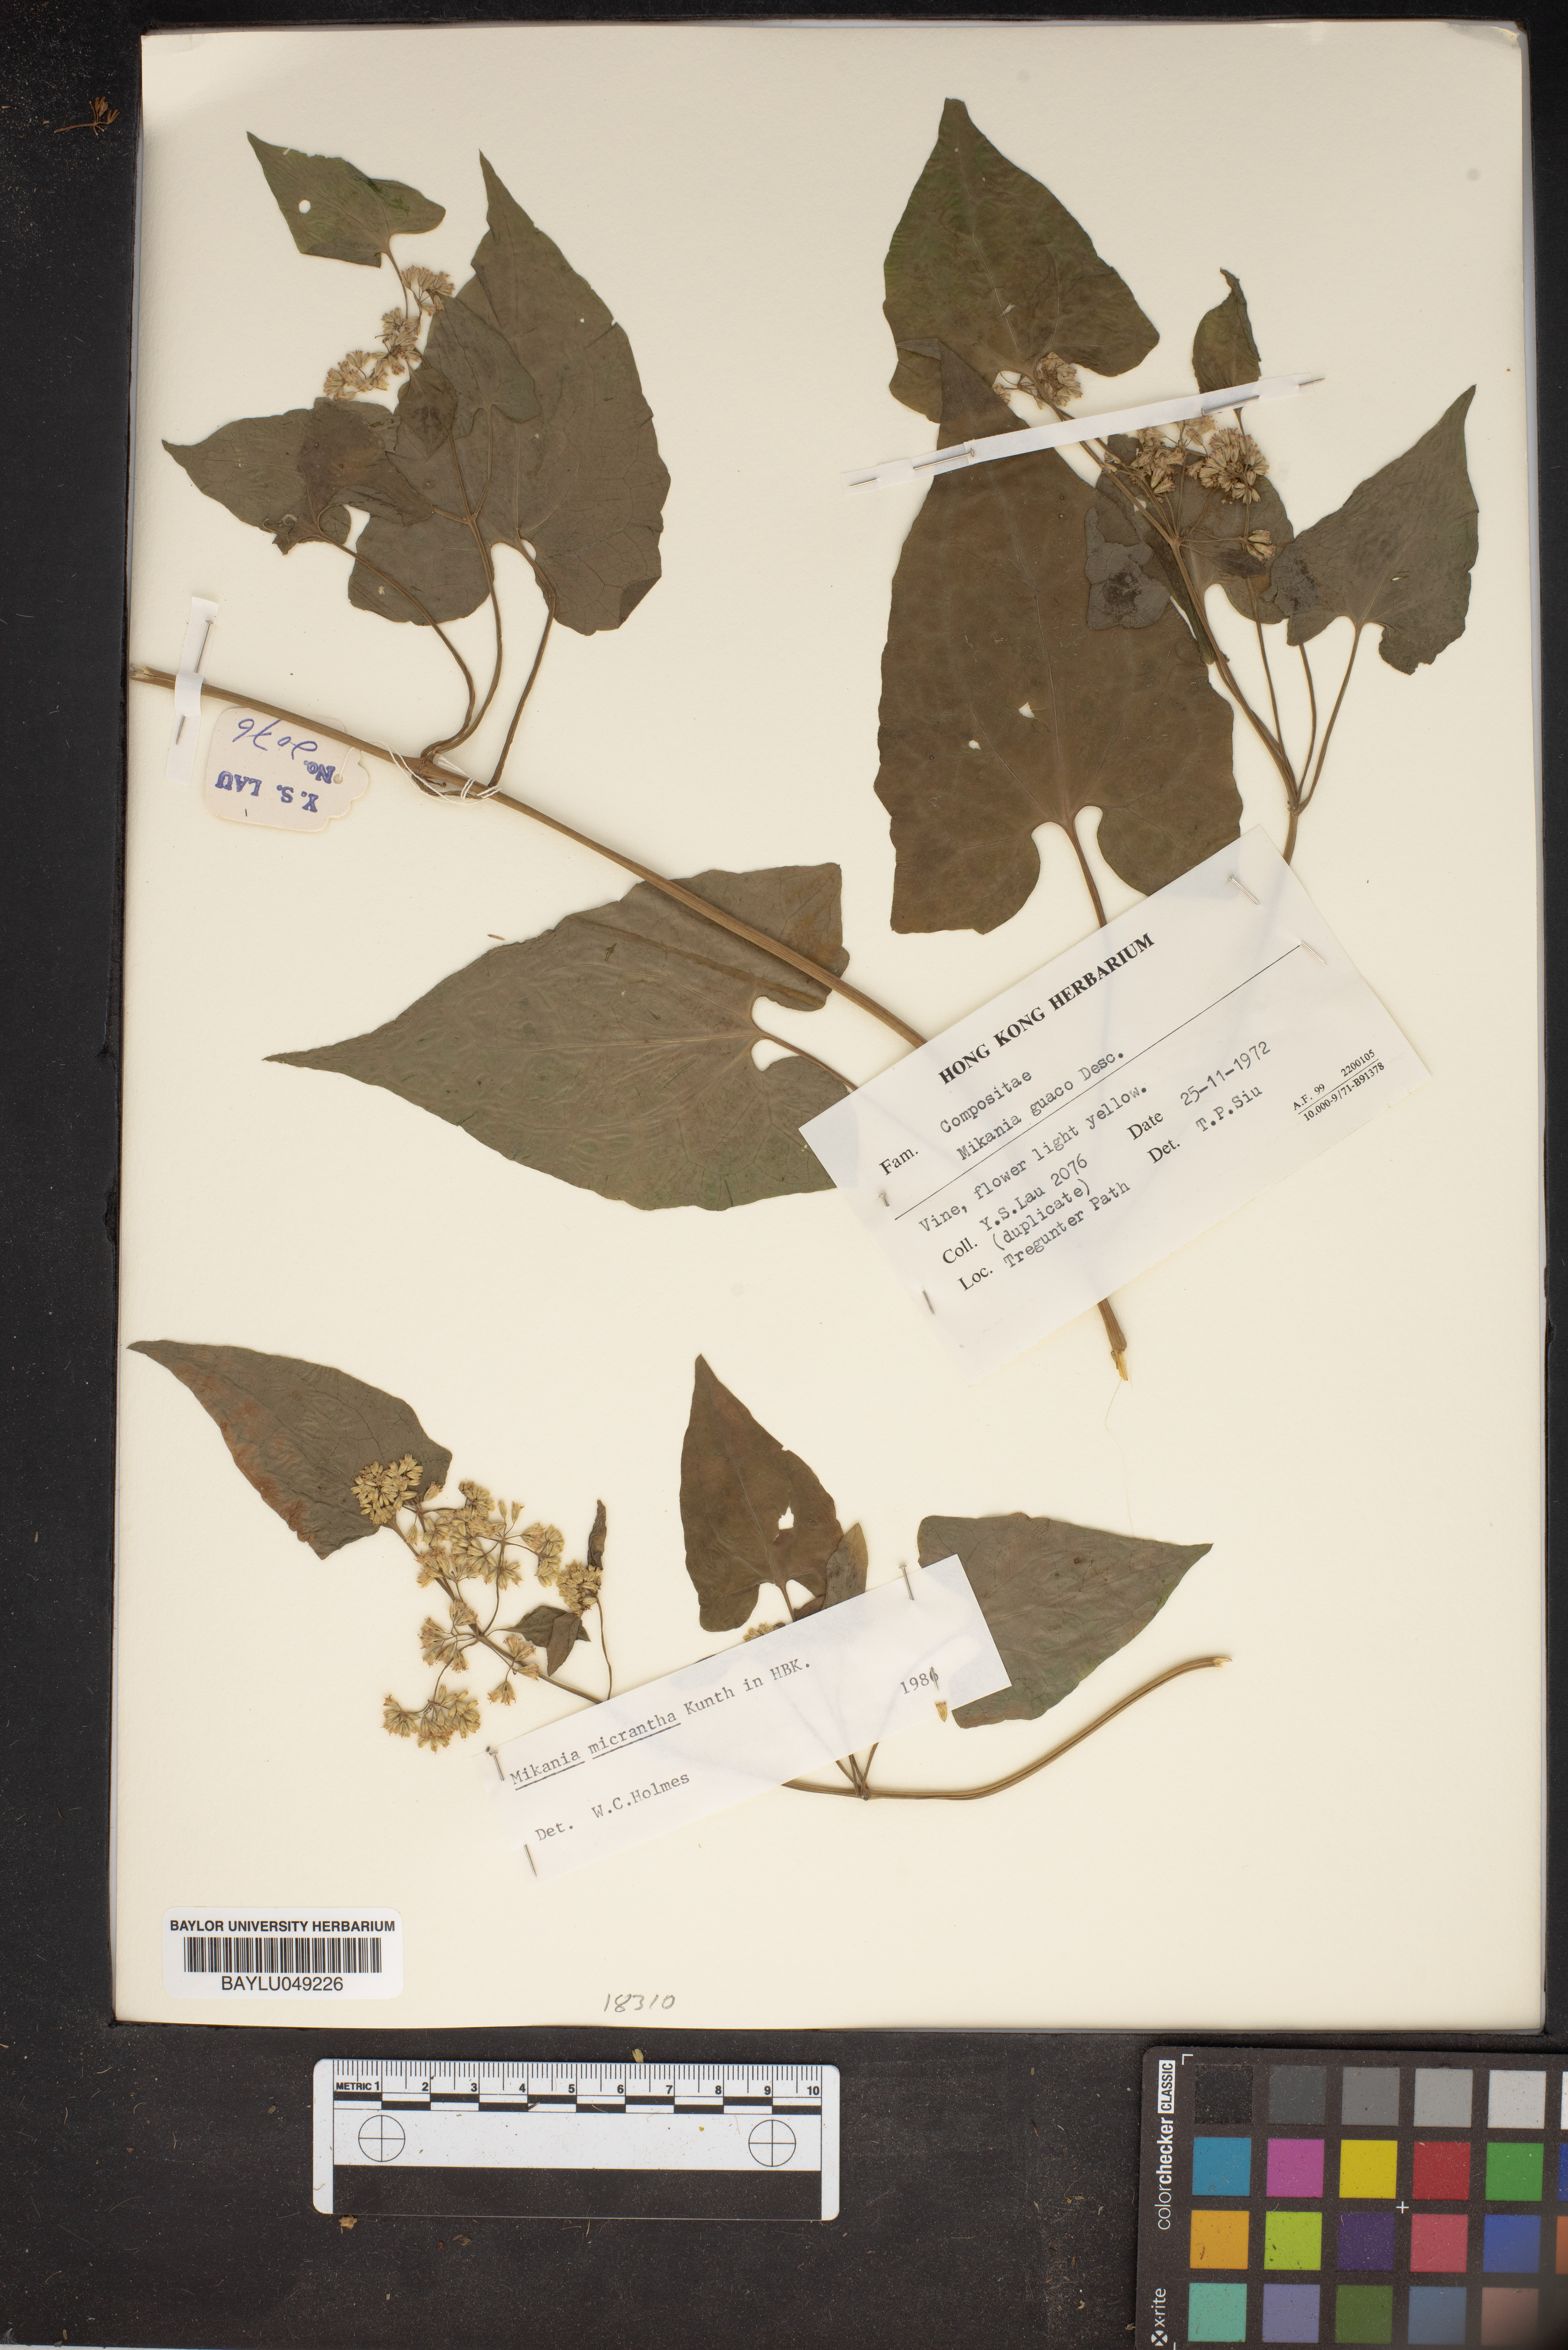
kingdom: Plantae
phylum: Tracheophyta
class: Magnoliopsida
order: Asterales
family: Asteraceae
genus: Mikania
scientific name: Mikania micrantha
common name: Mile-a-minute
